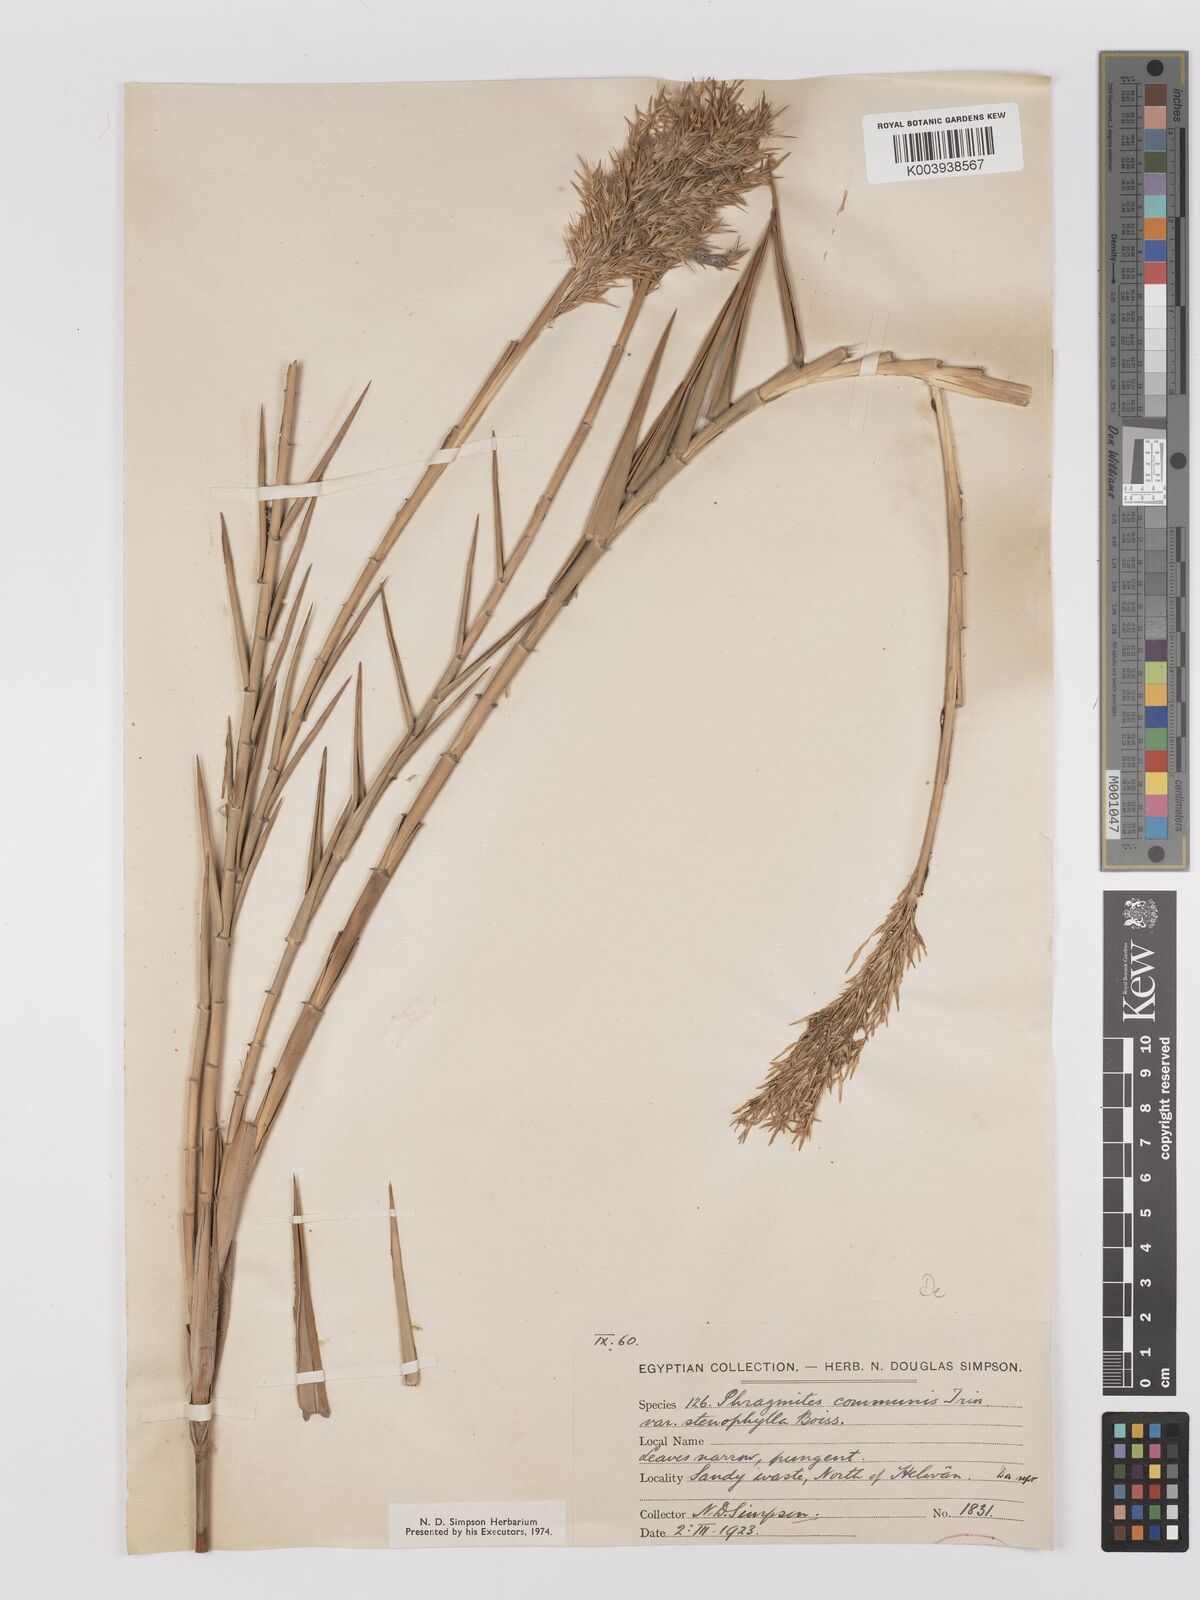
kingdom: Plantae
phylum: Tracheophyta
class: Liliopsida
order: Poales
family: Poaceae
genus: Phragmites
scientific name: Phragmites australis
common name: Common reed
